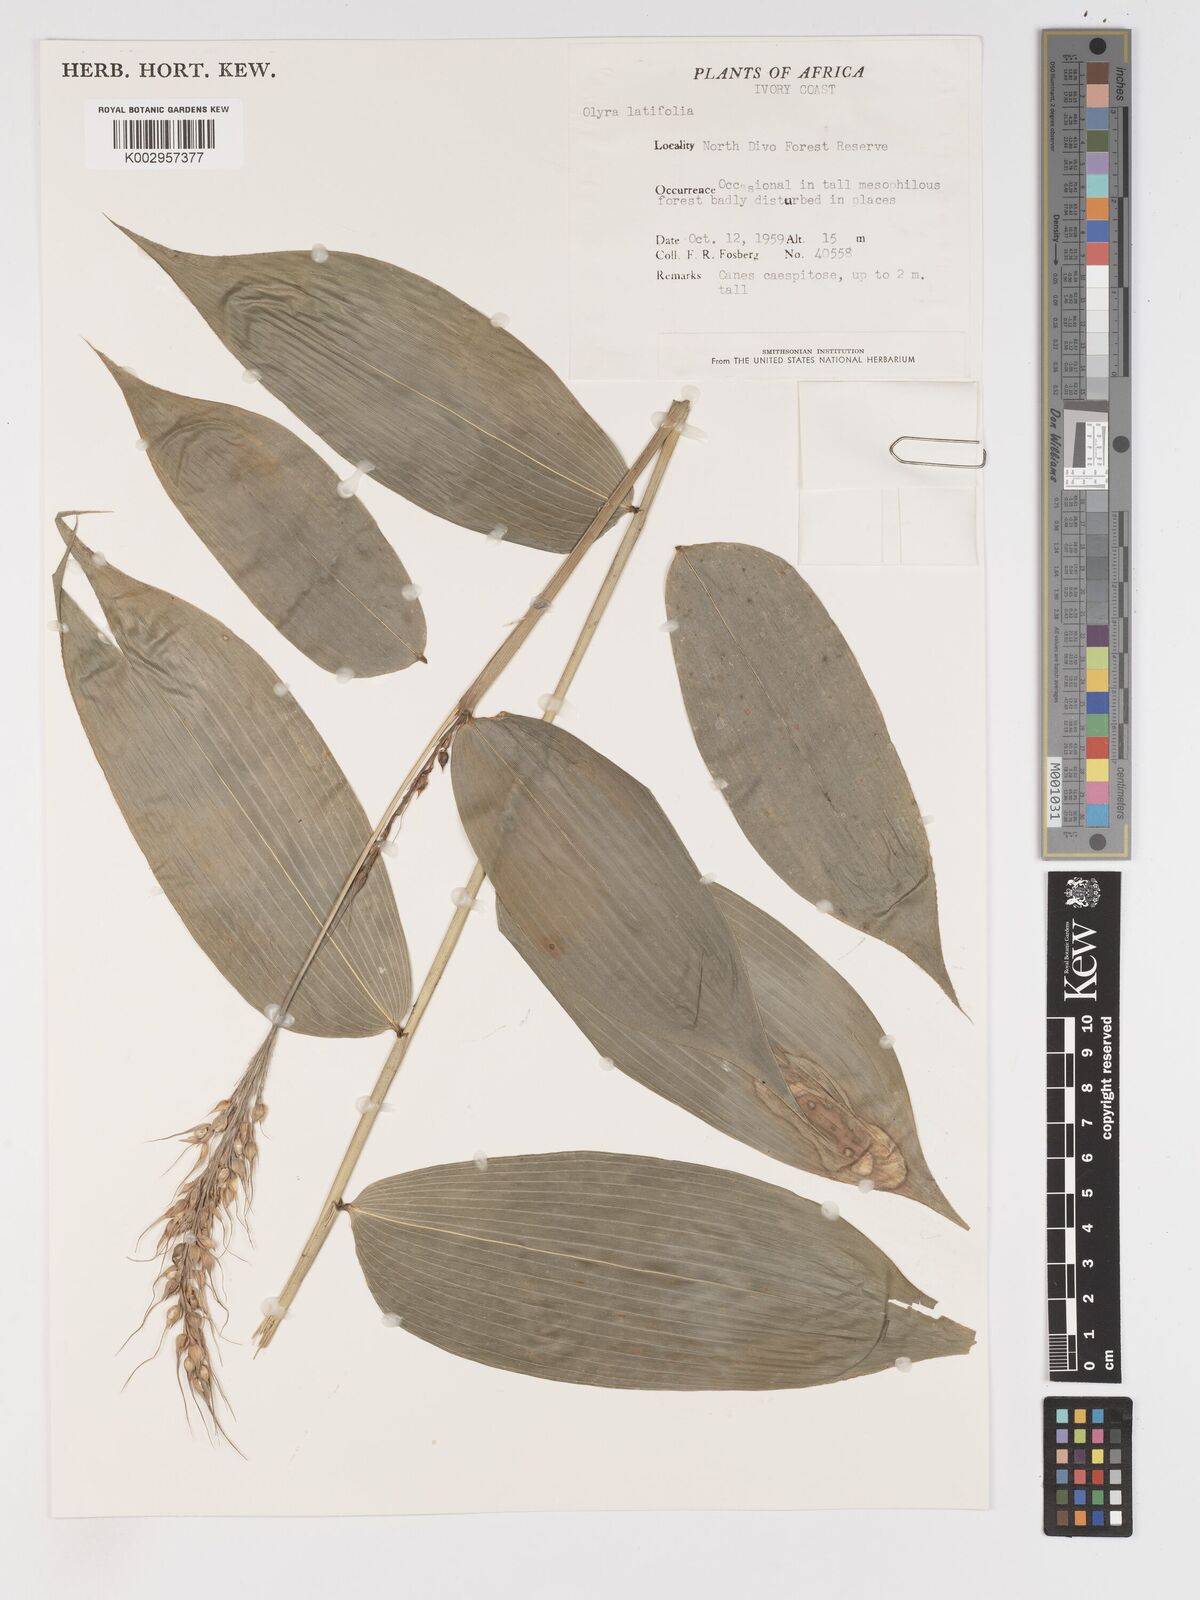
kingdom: Plantae
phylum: Tracheophyta
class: Liliopsida
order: Poales
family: Poaceae
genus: Olyra
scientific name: Olyra latifolia
